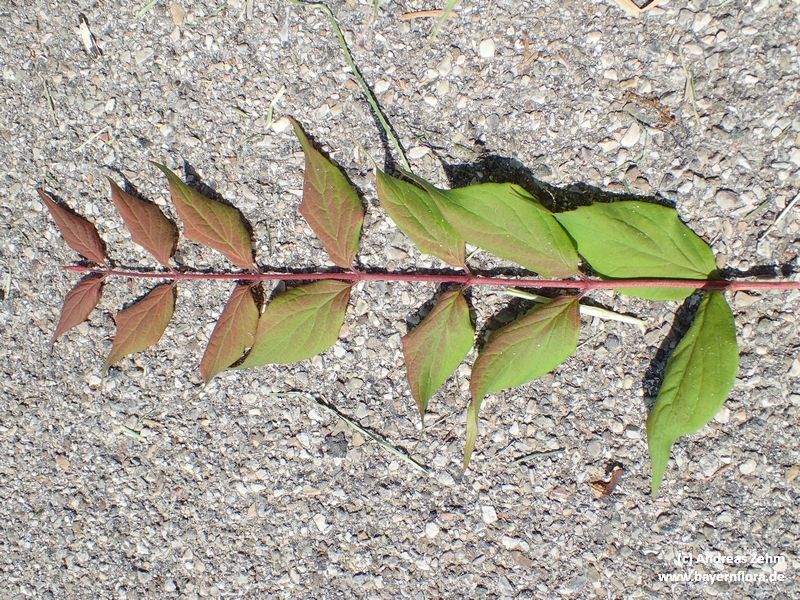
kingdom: Plantae
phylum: Tracheophyta
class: Magnoliopsida
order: Dipsacales
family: Caprifoliaceae
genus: Kolkwitzia
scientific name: Kolkwitzia amabilis
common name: Beautybush
